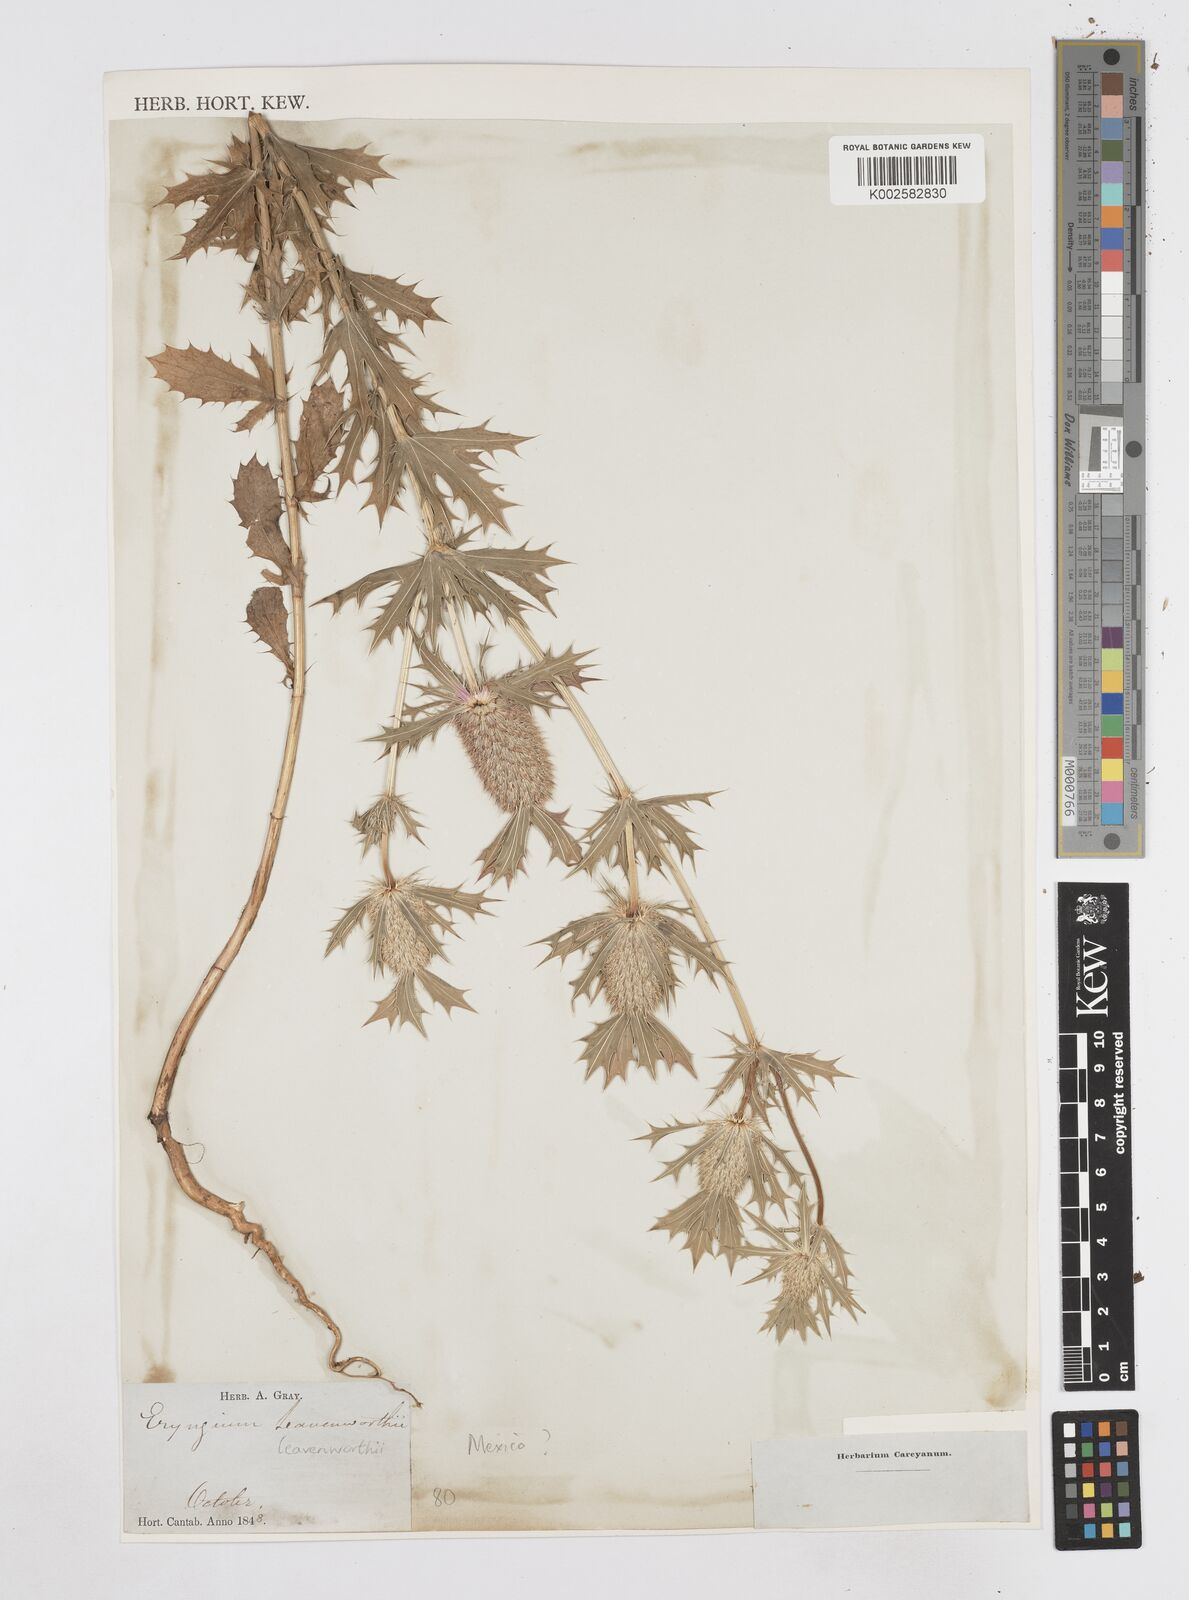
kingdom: Plantae
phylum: Tracheophyta
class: Magnoliopsida
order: Apiales
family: Apiaceae
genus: Eryngium
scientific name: Eryngium leavenworthii
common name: Leavenworth's eryngo
